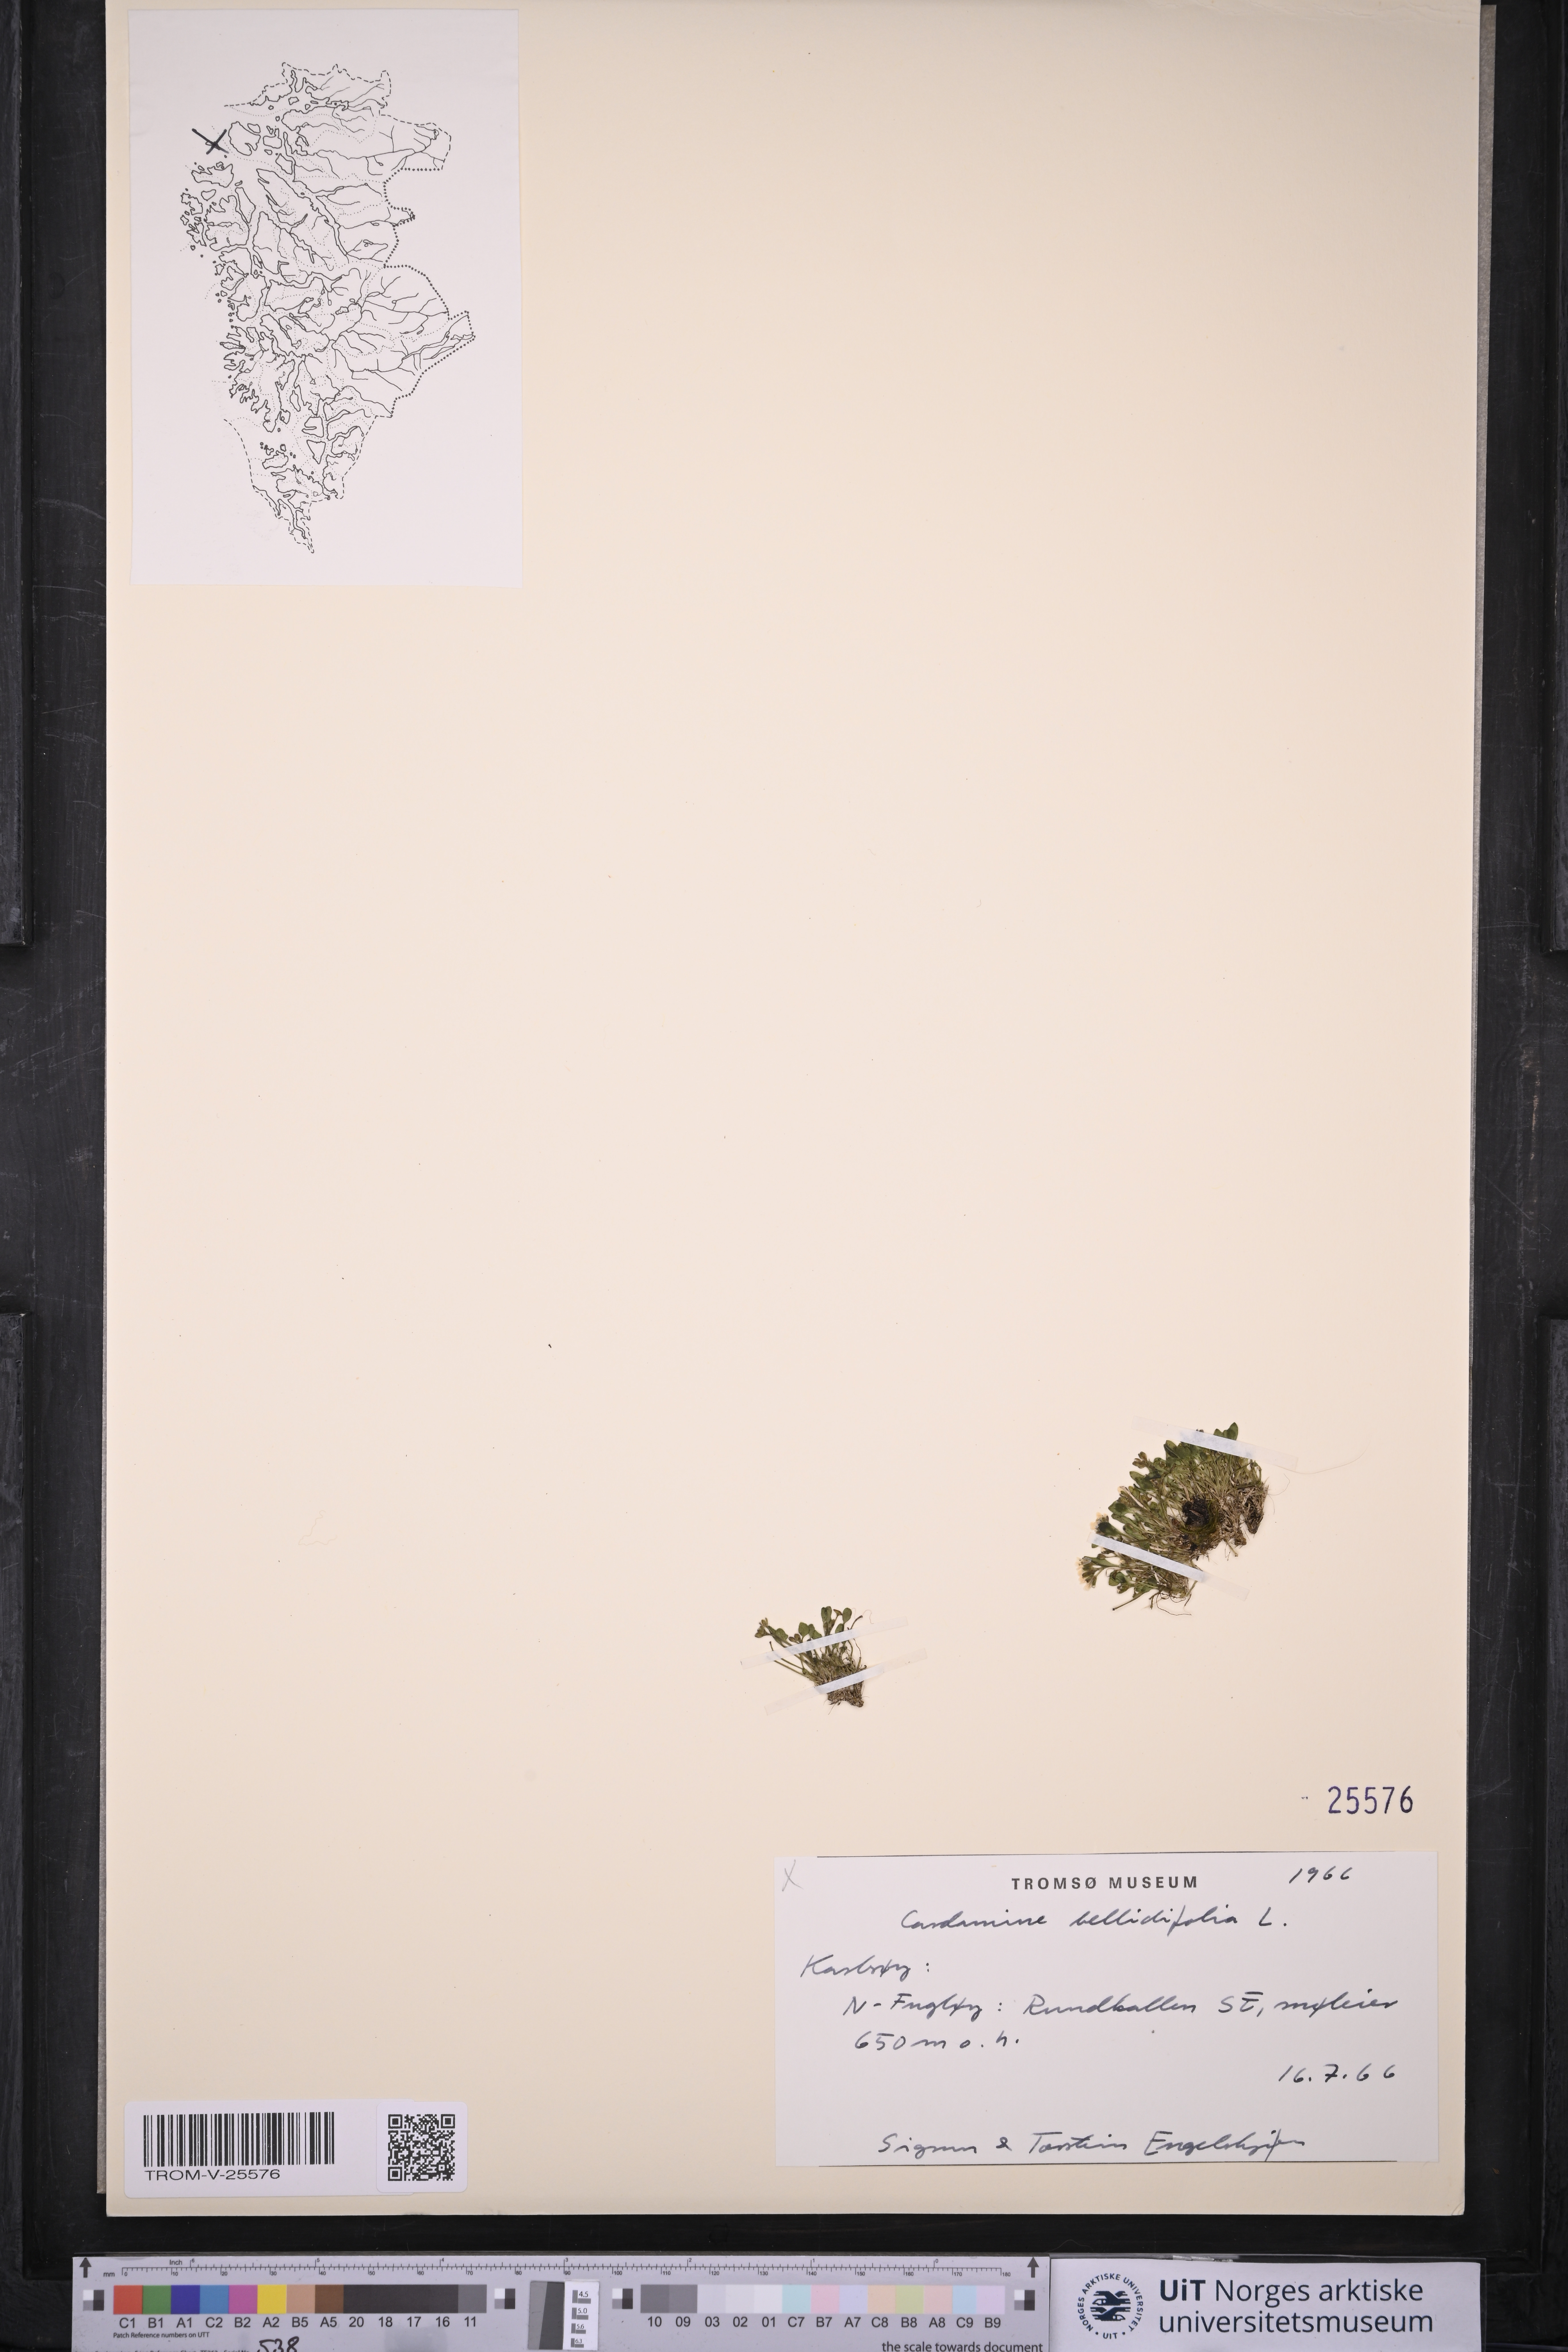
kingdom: Plantae
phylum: Tracheophyta
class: Magnoliopsida
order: Brassicales
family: Brassicaceae
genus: Cardamine
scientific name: Cardamine bellidifolia
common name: Alpine bittercress
